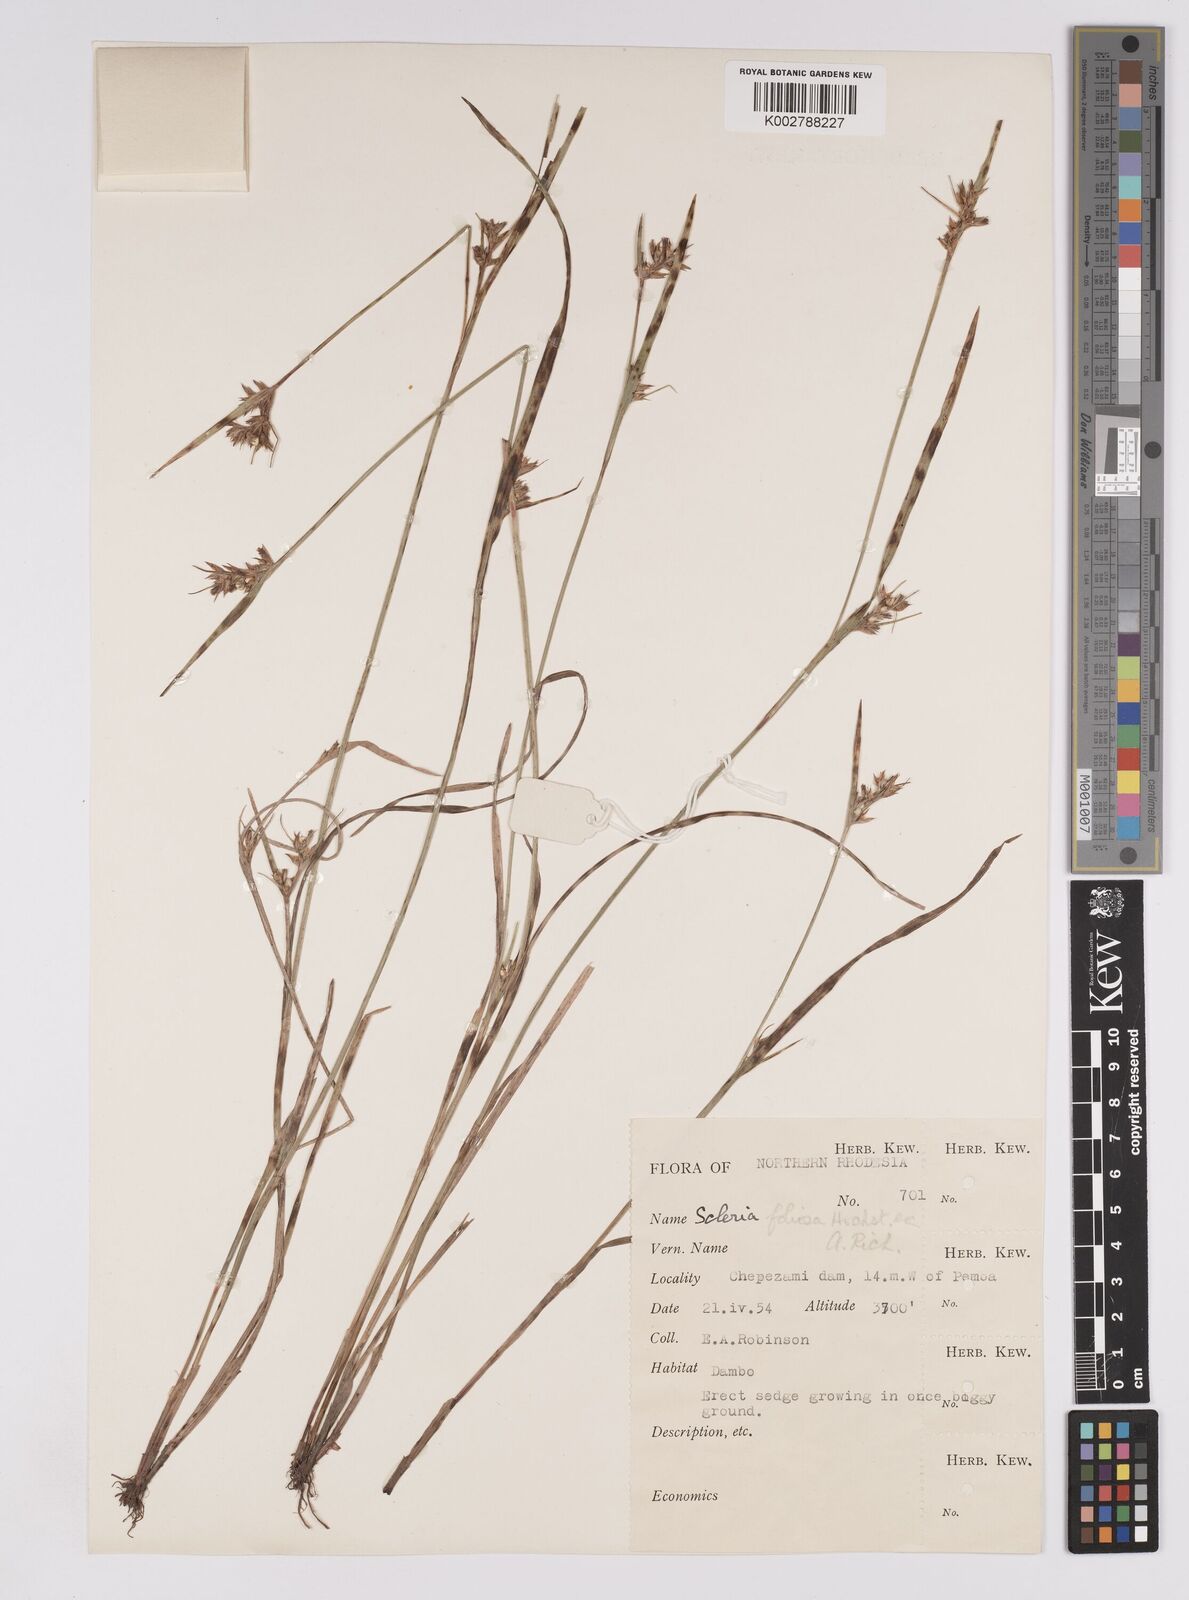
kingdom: Plantae
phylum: Tracheophyta
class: Liliopsida
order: Poales
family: Cyperaceae
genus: Scleria
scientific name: Scleria foliosa
